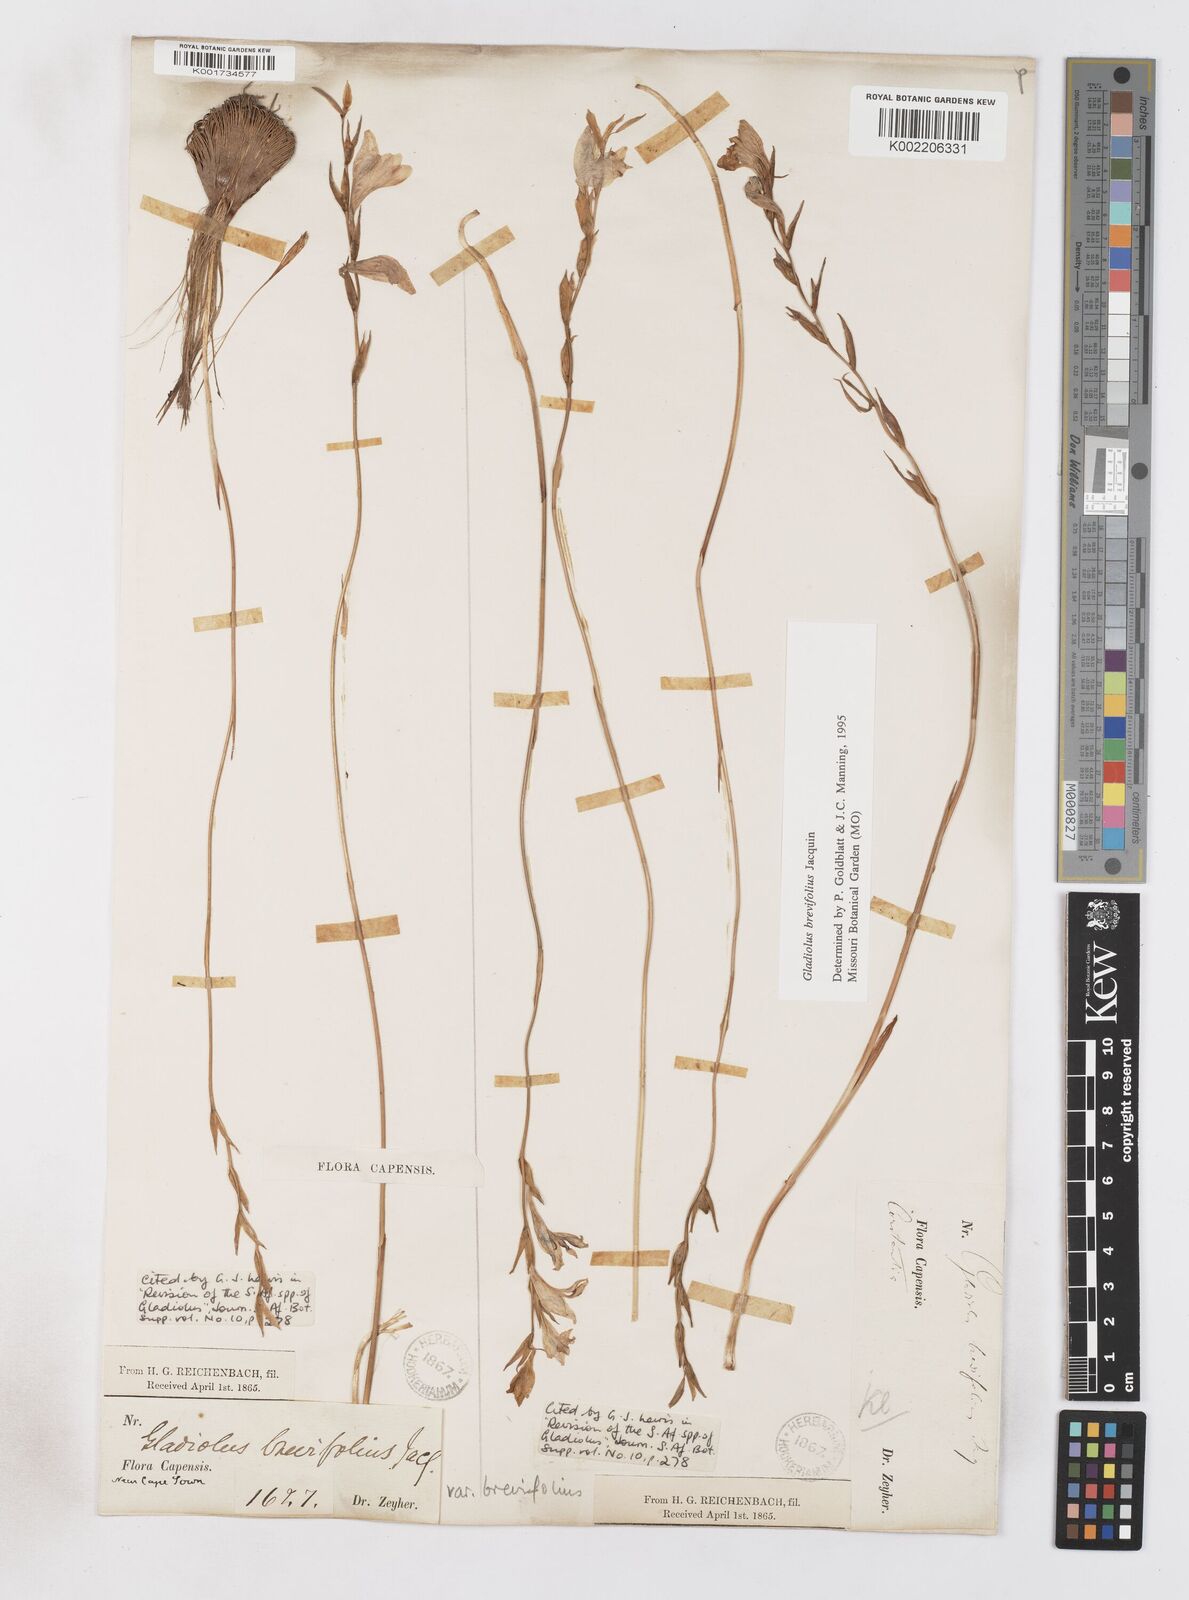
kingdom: Plantae
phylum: Tracheophyta
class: Liliopsida
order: Asparagales
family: Iridaceae
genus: Gladiolus
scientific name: Gladiolus brevifolius
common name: March pypie
